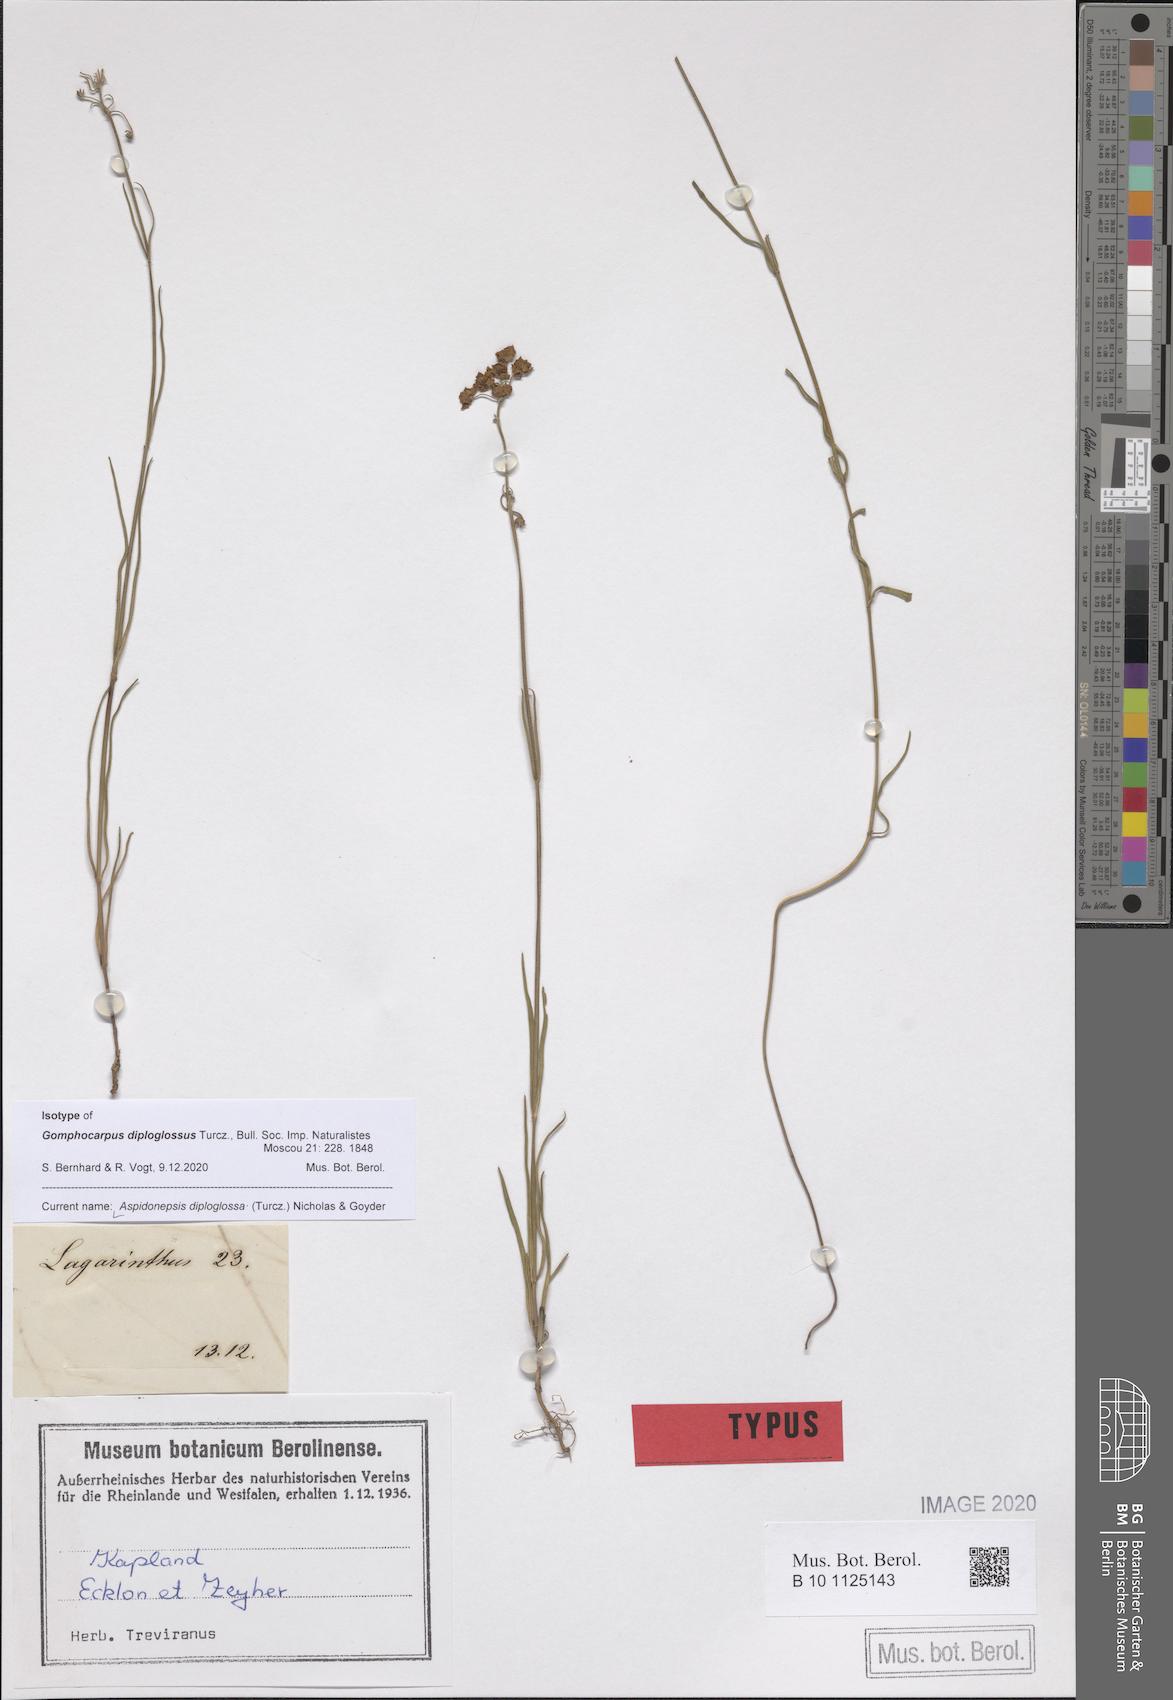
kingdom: Plantae
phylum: Tracheophyta
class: Magnoliopsida
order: Gentianales
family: Apocynaceae
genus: Aspidonepsis
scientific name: Aspidonepsis diploglossa
